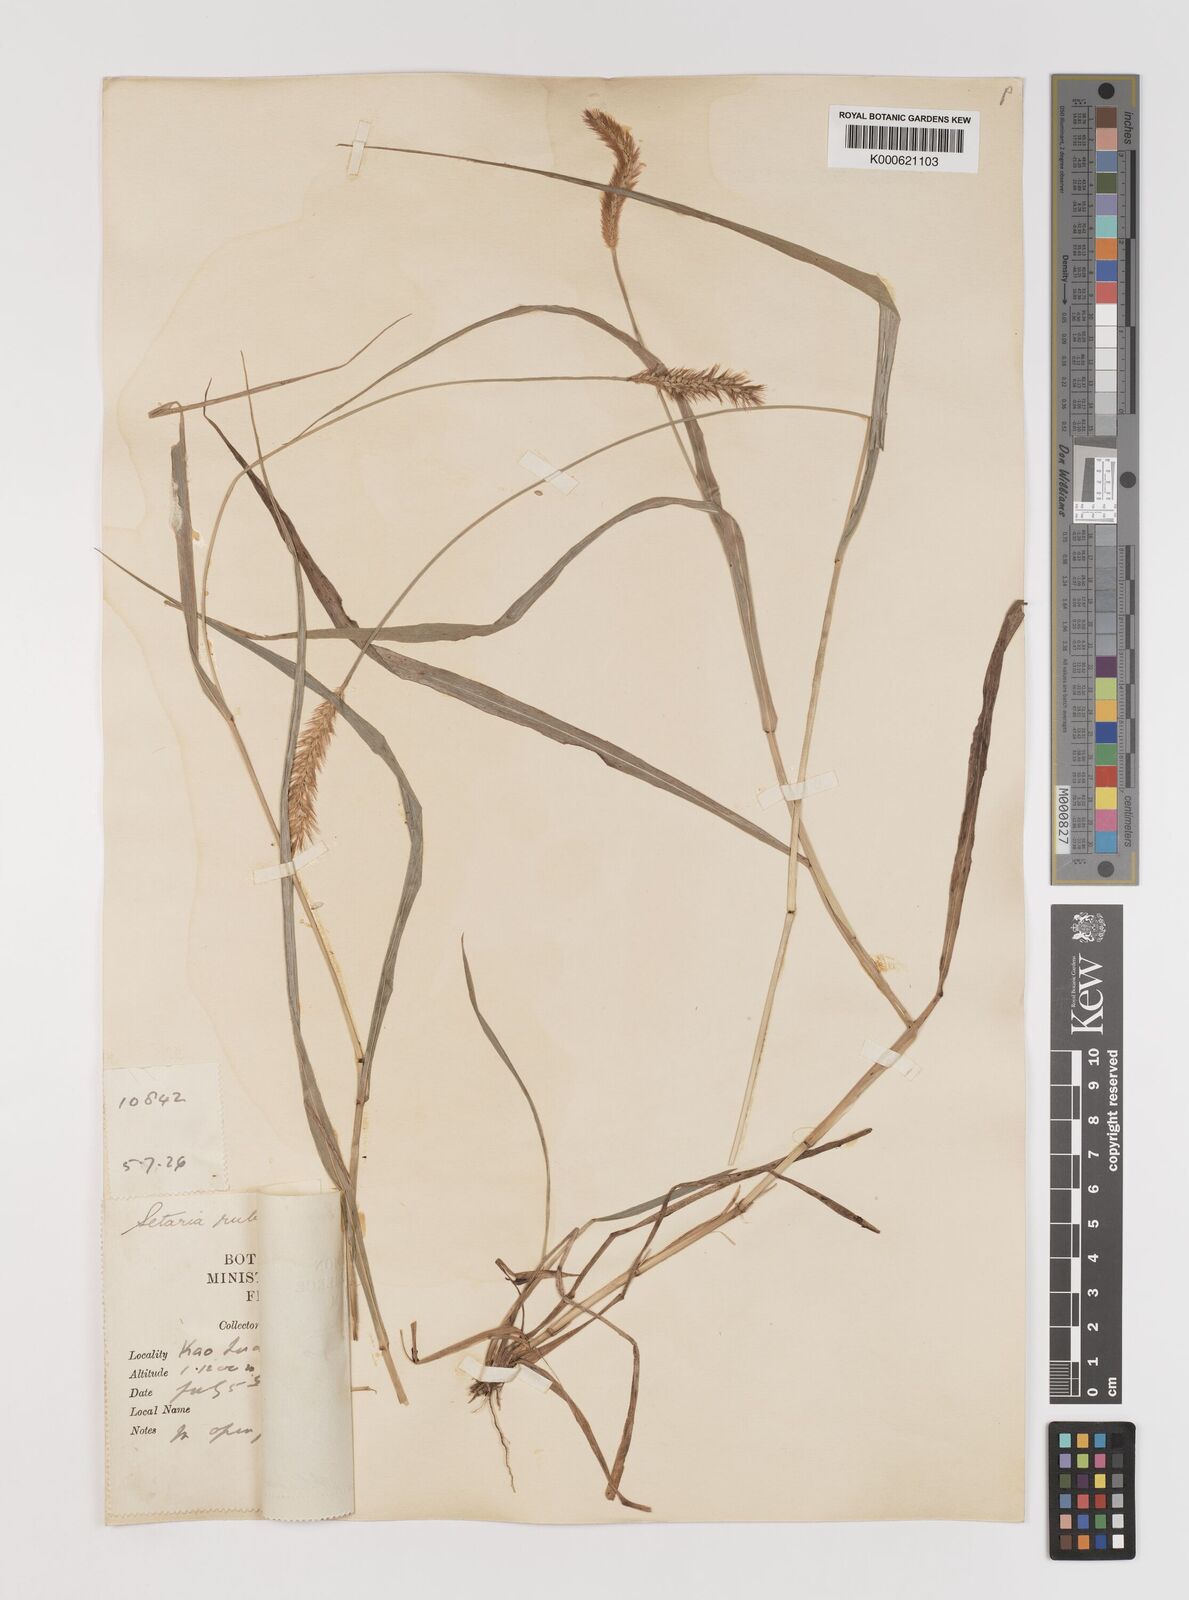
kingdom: Plantae
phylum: Tracheophyta
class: Liliopsida
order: Poales
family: Poaceae
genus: Setaria
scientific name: Setaria pumila
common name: Yellow bristle-grass
